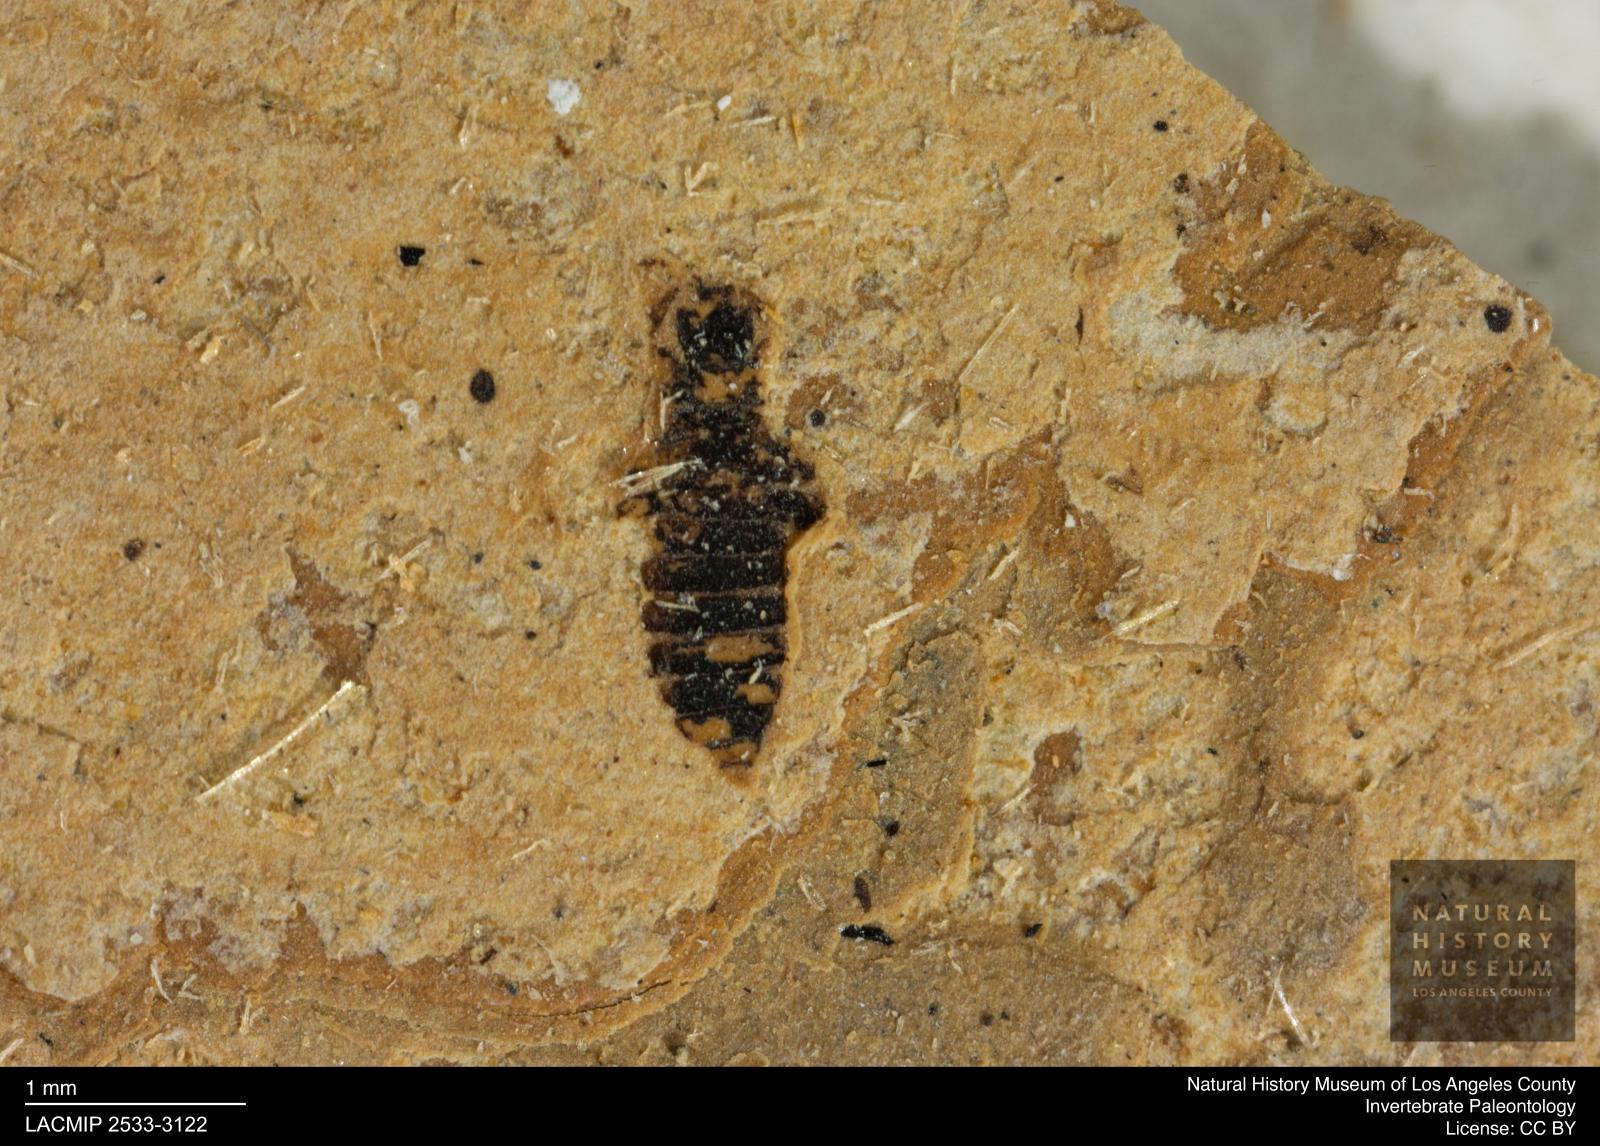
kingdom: Animalia
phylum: Arthropoda
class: Insecta
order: Thysanoptera
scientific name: Thysanoptera
